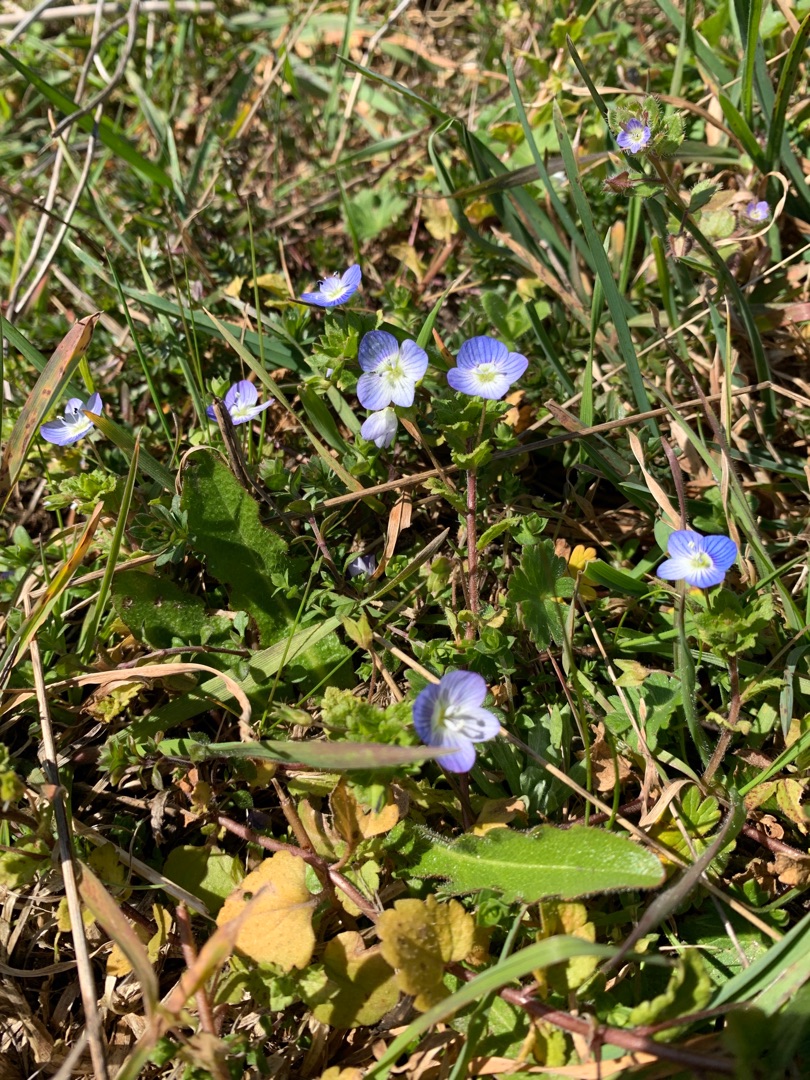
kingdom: Plantae
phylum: Tracheophyta
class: Magnoliopsida
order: Lamiales
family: Plantaginaceae
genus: Veronica
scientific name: Veronica persica
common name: Storkronet ærenpris
